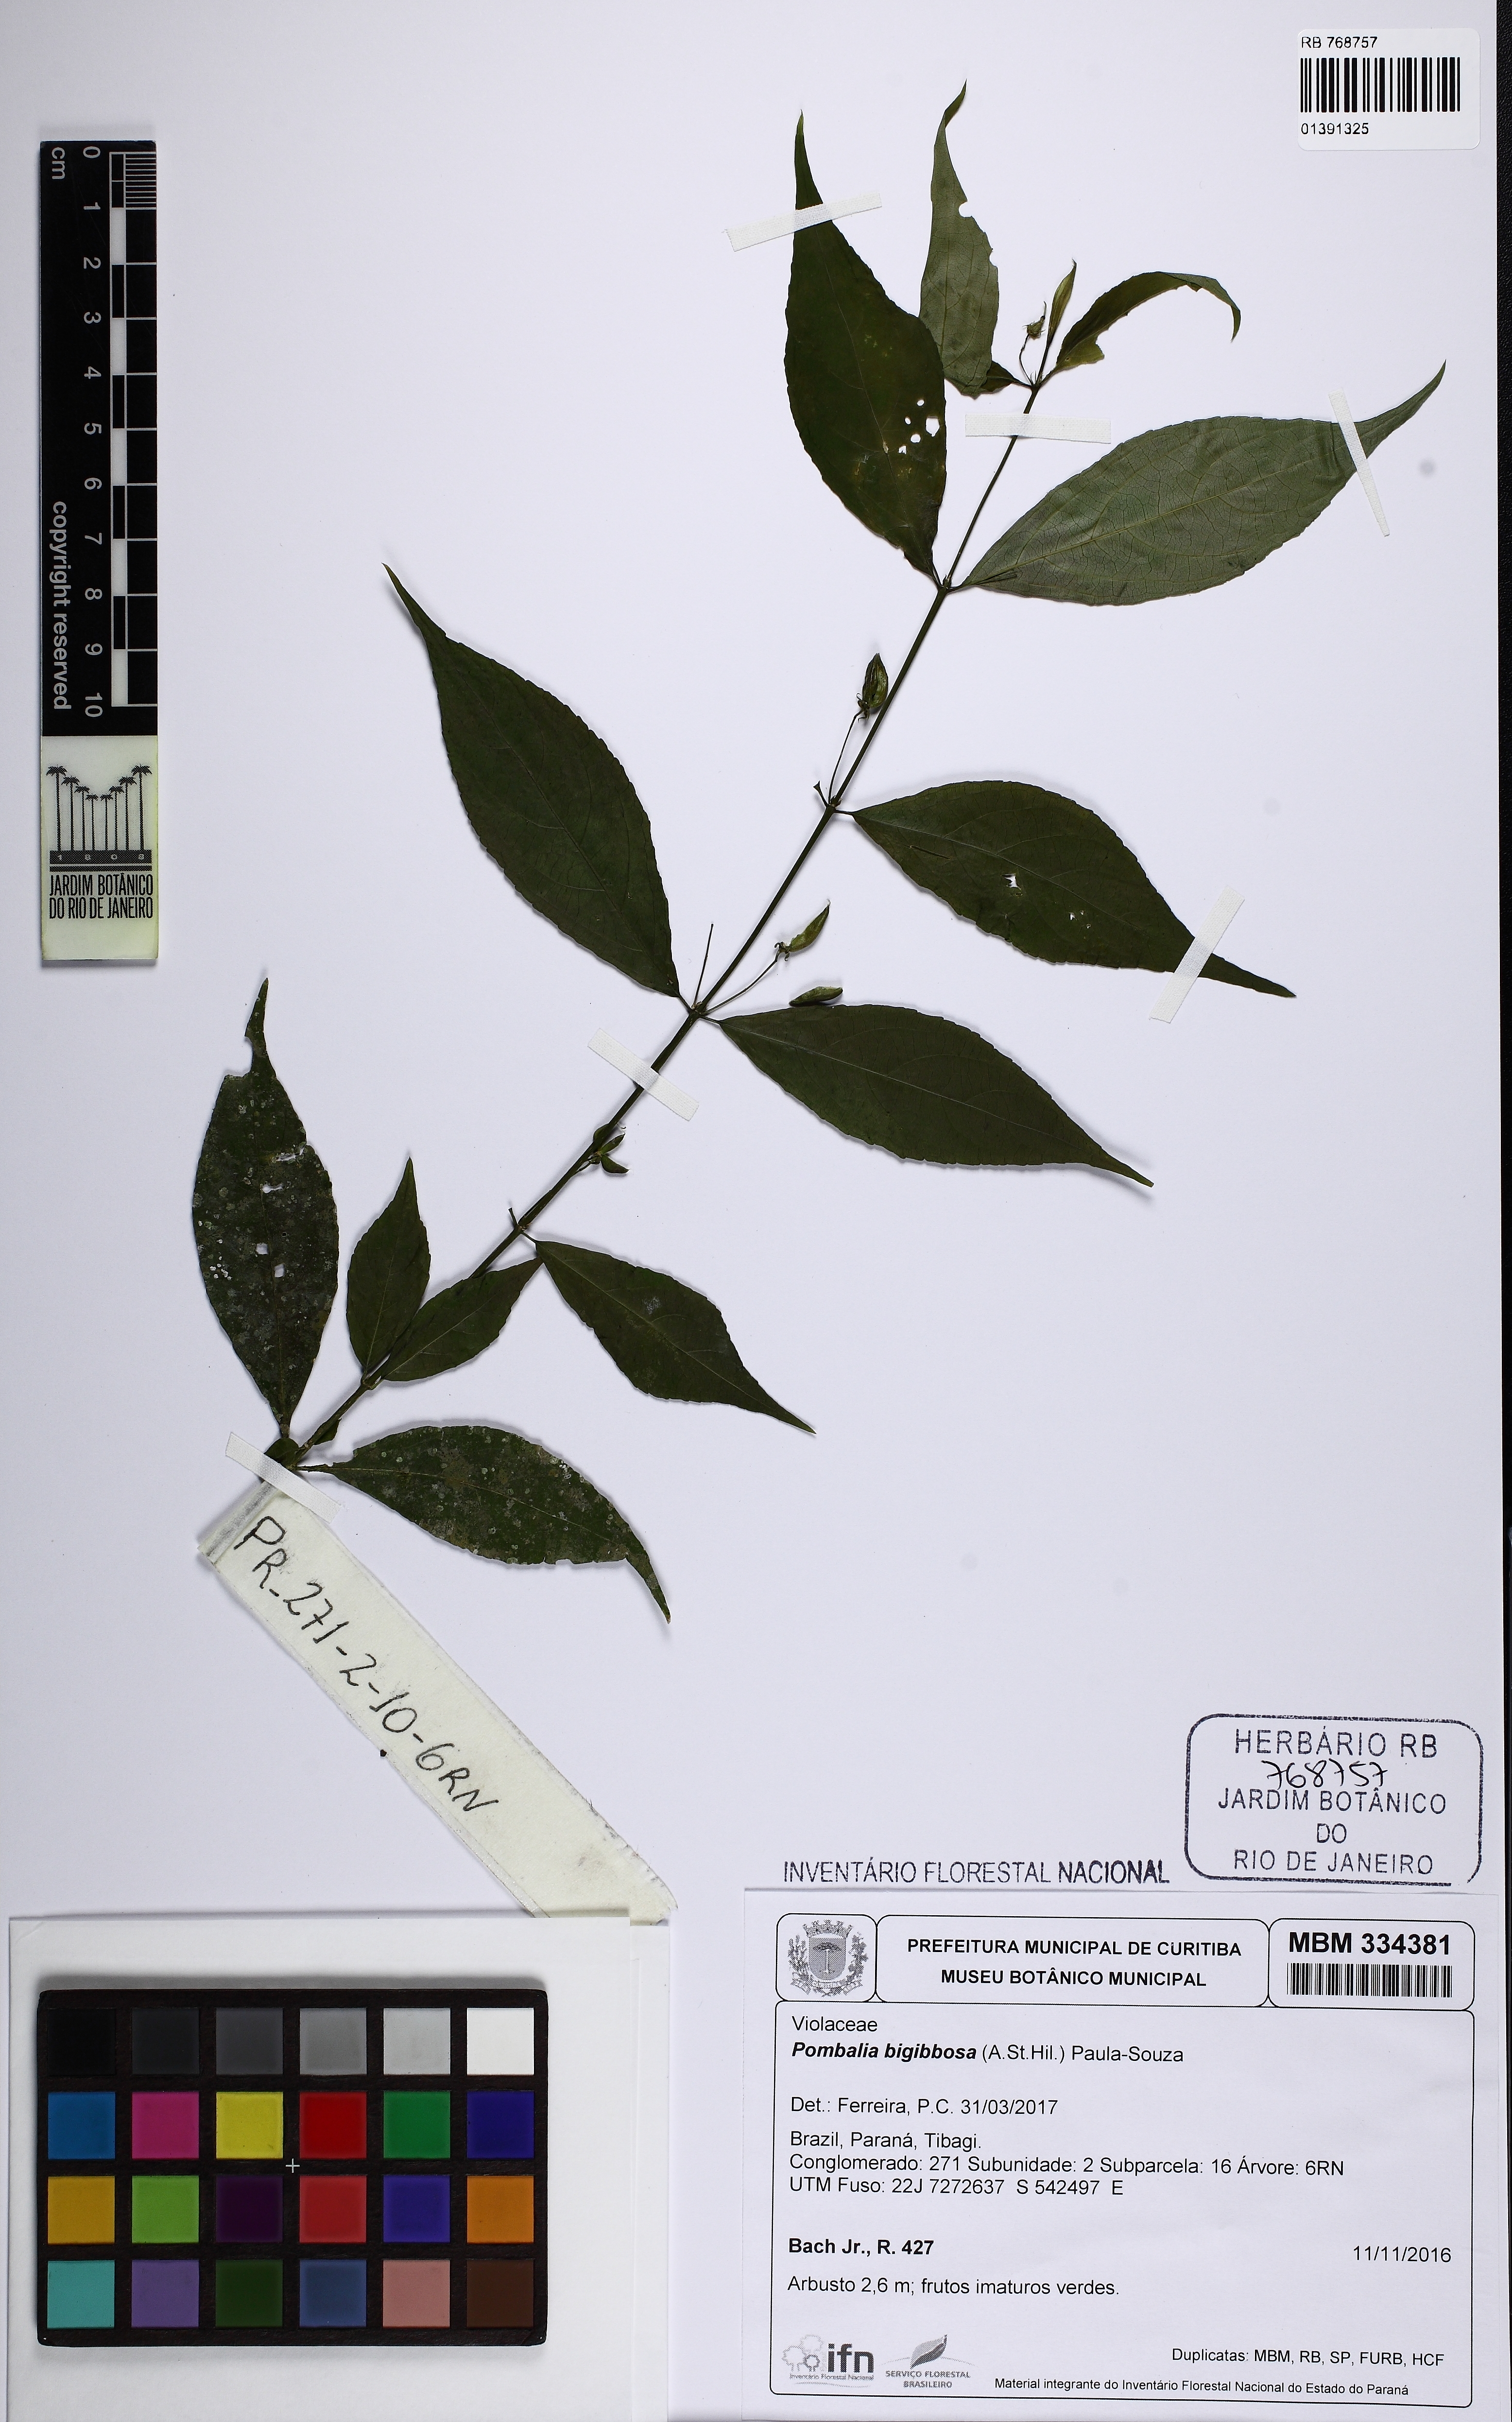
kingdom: Plantae
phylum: Tracheophyta
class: Magnoliopsida
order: Malpighiales
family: Violaceae
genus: Pombalia
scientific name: Pombalia bigibbosa
